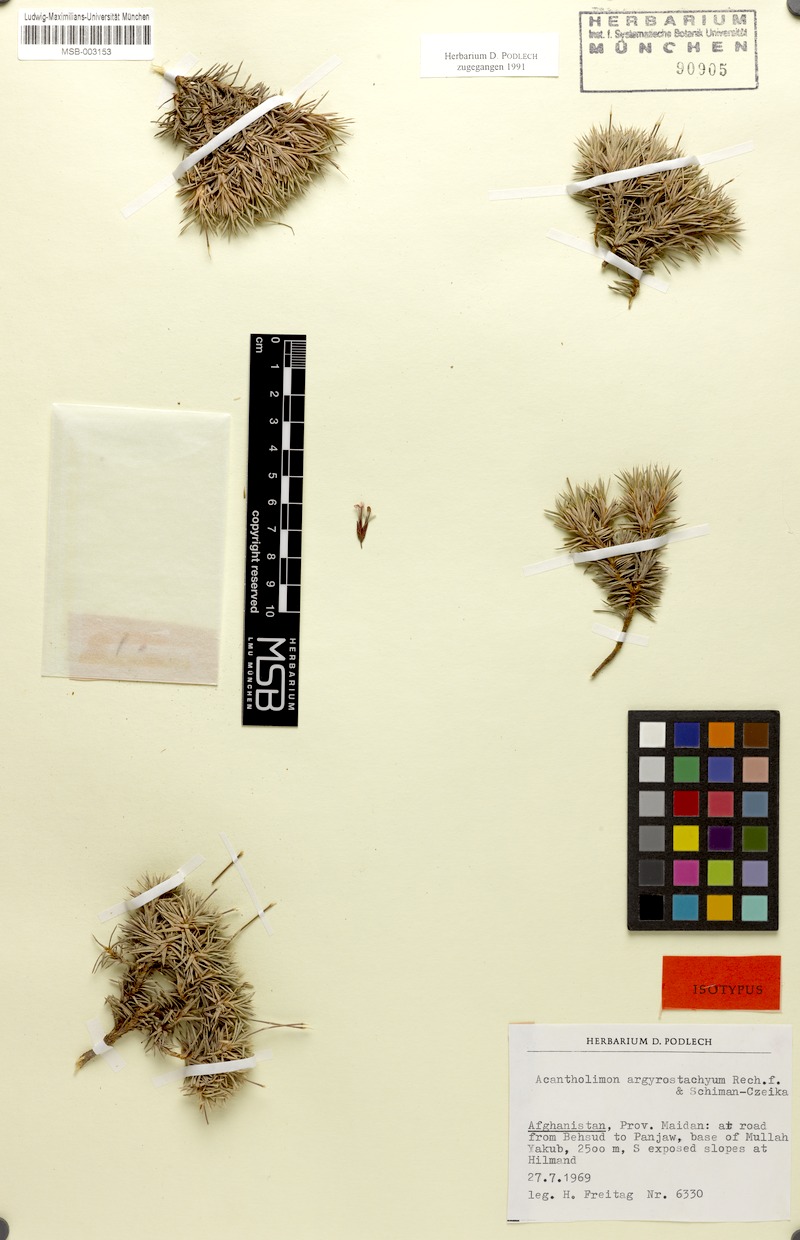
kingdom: Plantae
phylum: Tracheophyta
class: Magnoliopsida
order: Caryophyllales
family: Plumbaginaceae
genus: Acantholimon
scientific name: Acantholimon argyrostachyum
